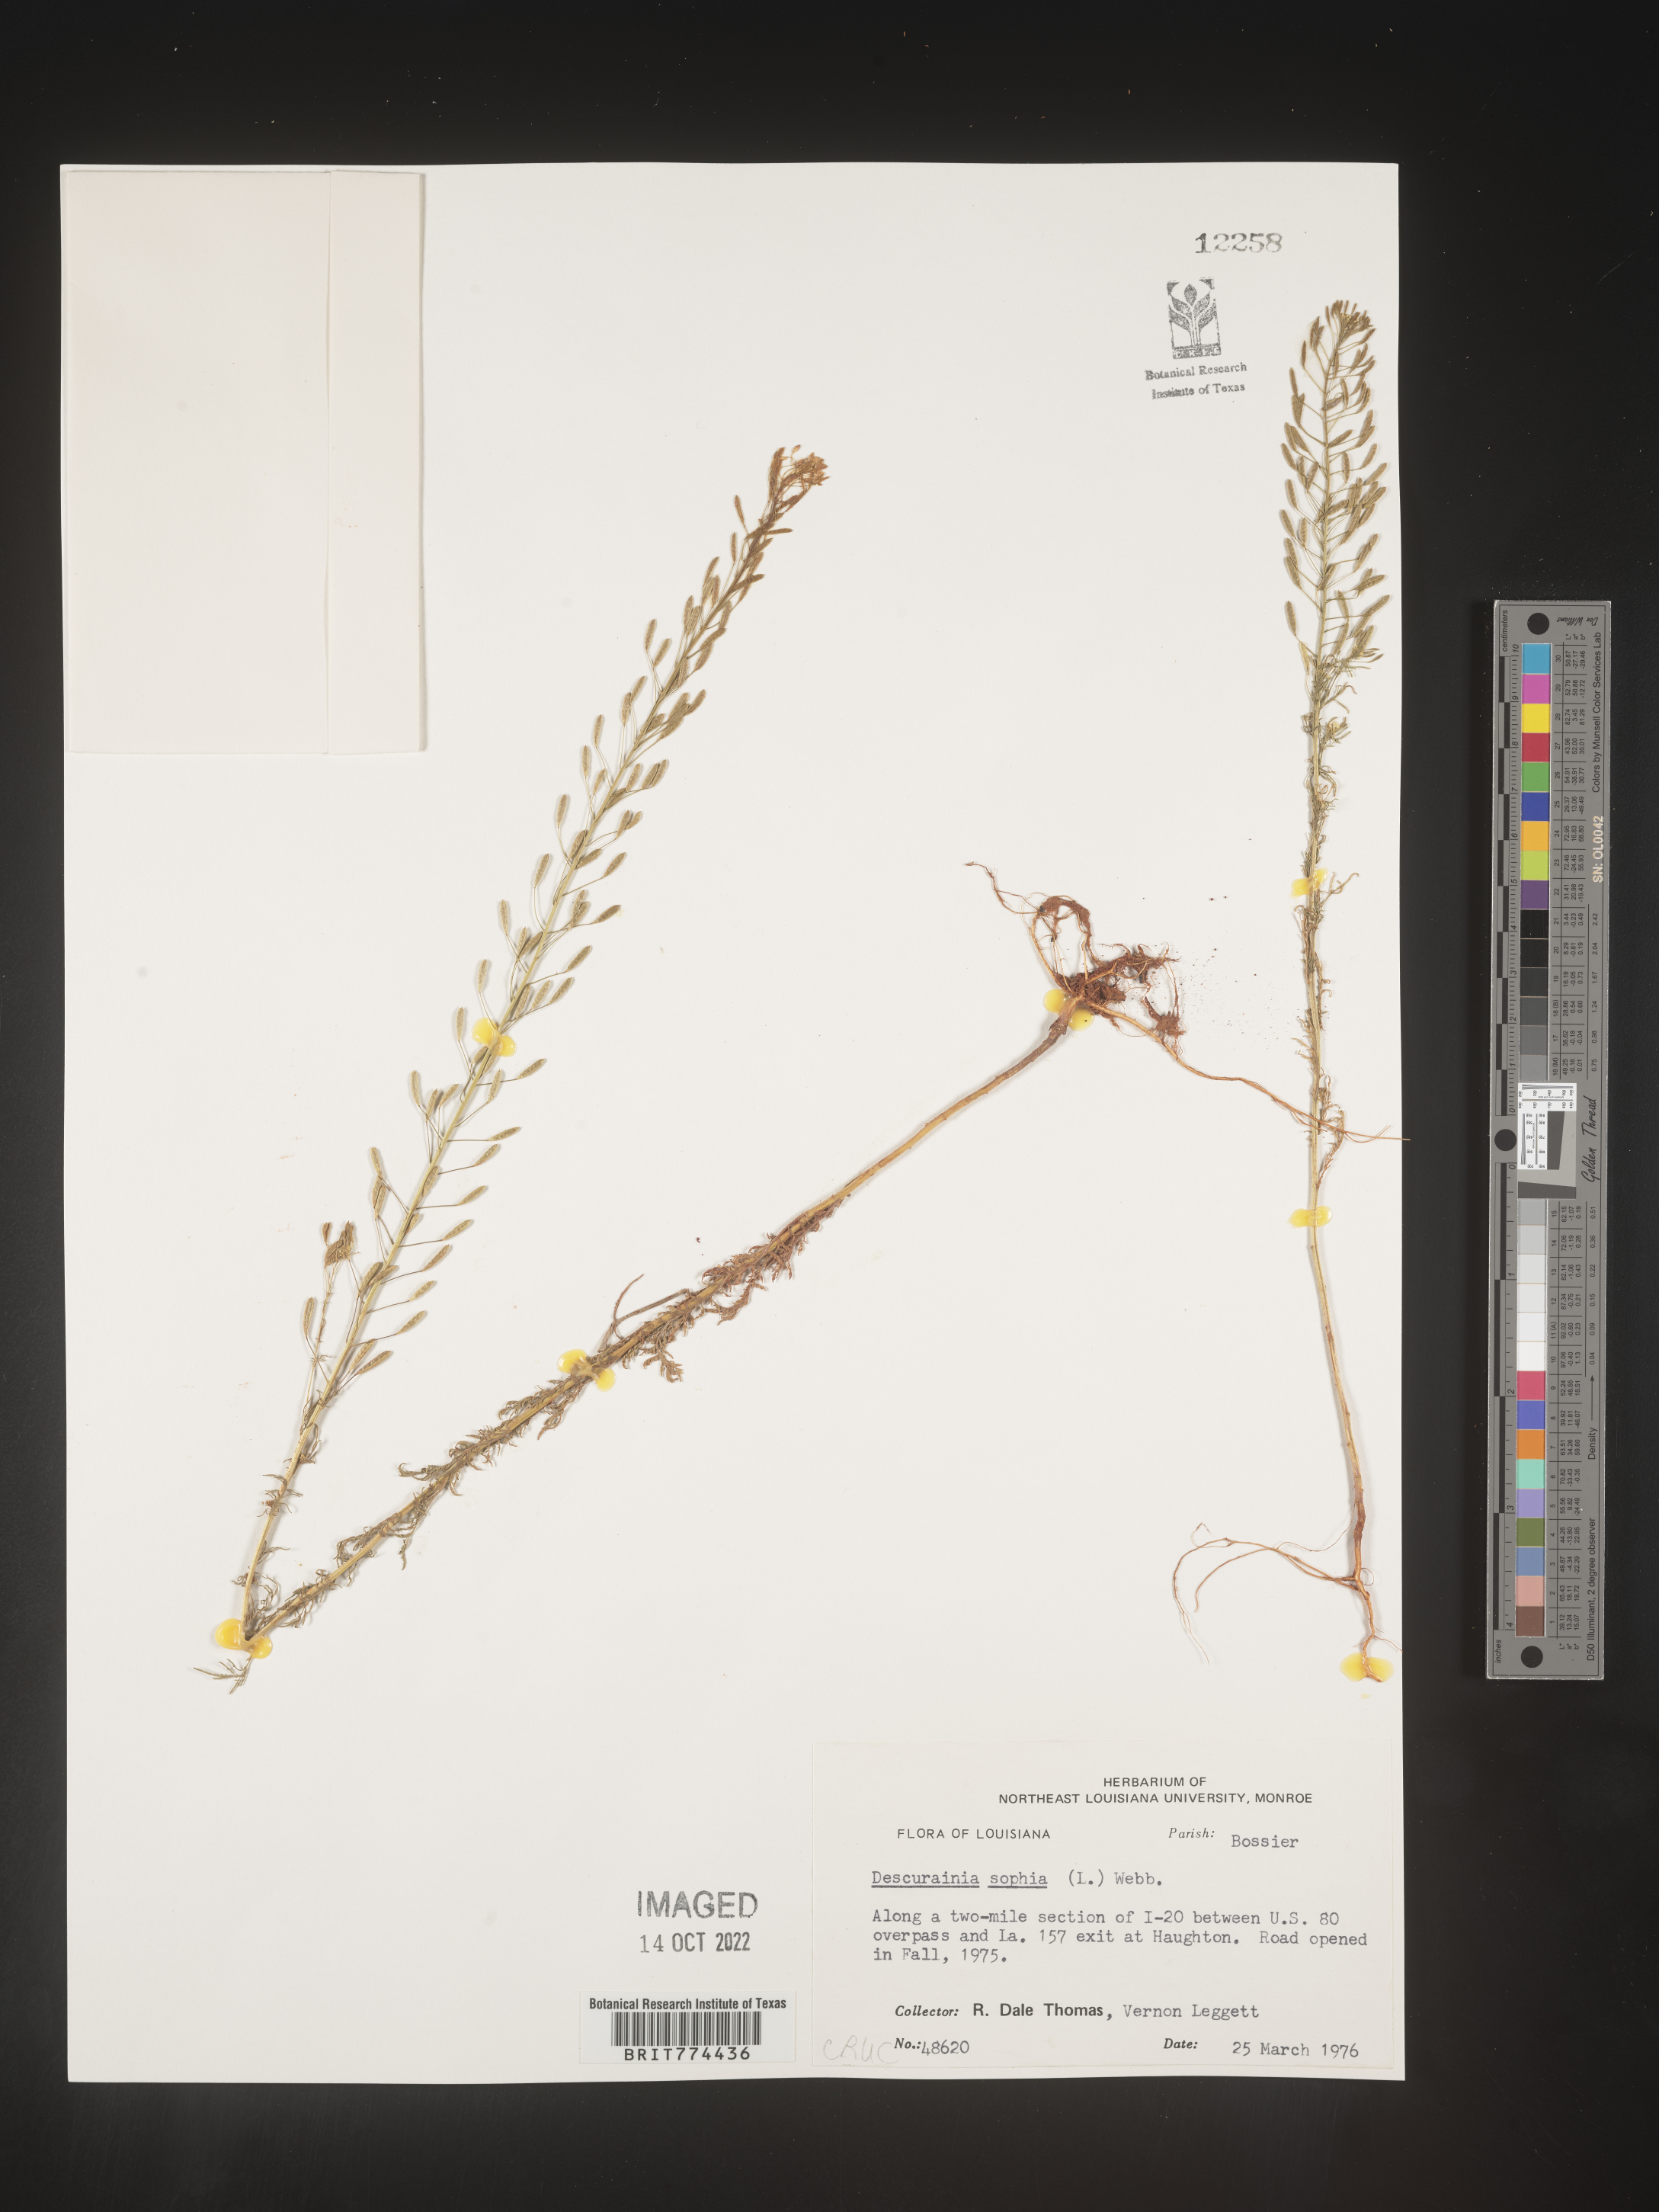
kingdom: Plantae
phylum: Tracheophyta
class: Magnoliopsida
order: Brassicales
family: Brassicaceae
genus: Descurainia
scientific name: Descurainia sophia
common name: Flixweed
